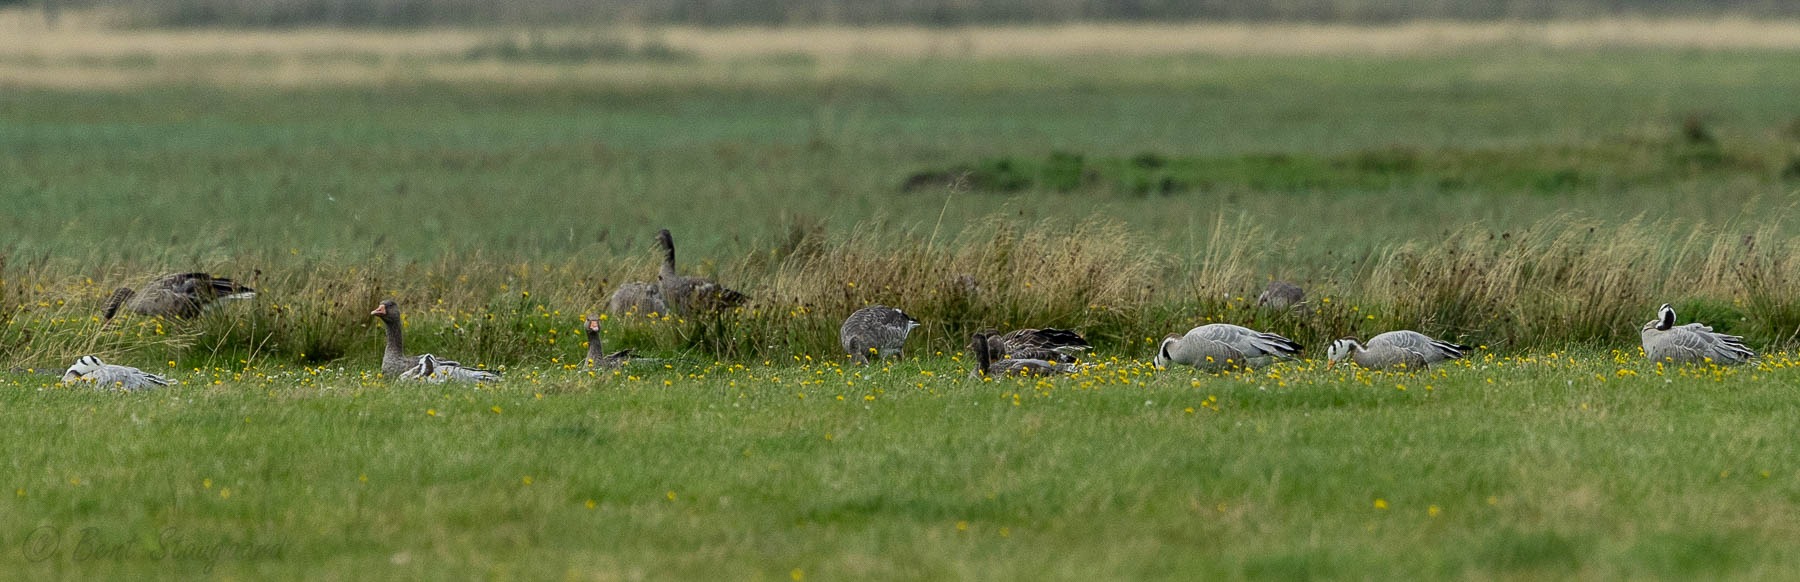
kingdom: Animalia
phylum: Chordata
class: Aves
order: Anseriformes
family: Anatidae
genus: Anser
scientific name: Anser indicus
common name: Indisk gås
